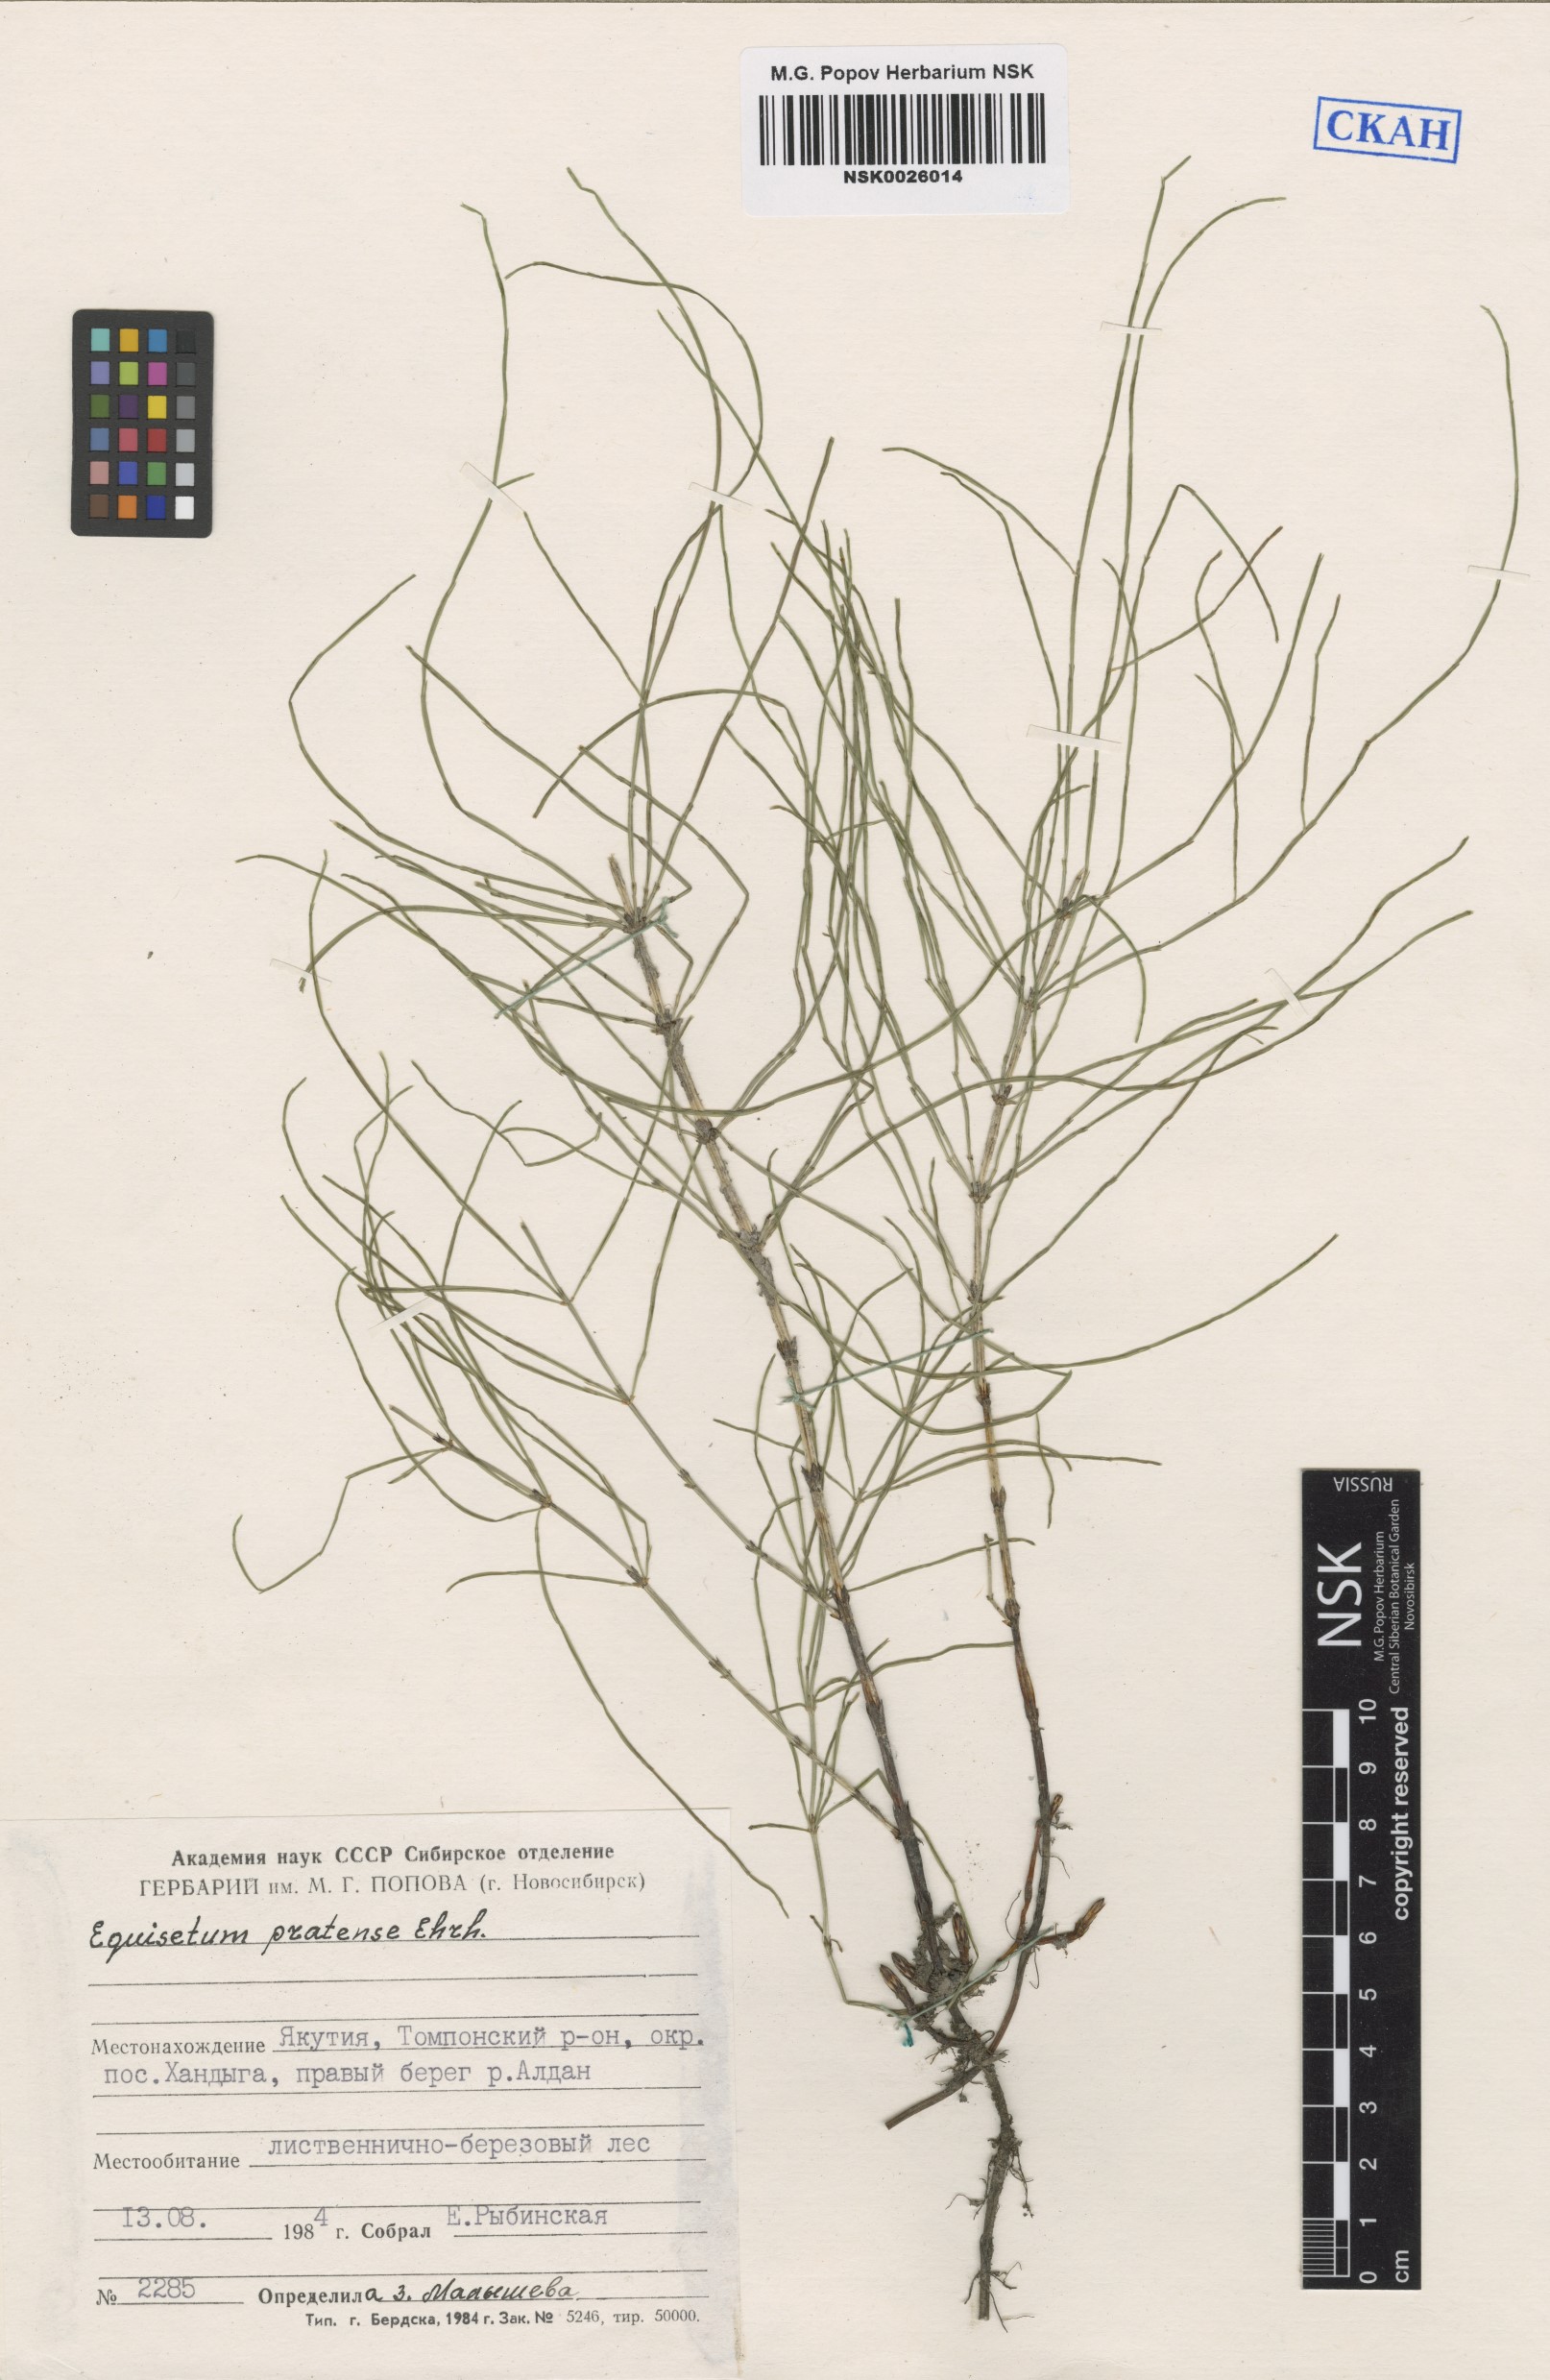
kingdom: Plantae
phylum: Tracheophyta
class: Polypodiopsida
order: Equisetales
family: Equisetaceae
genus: Equisetum
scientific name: Equisetum pratense
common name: Meadow horsetail
